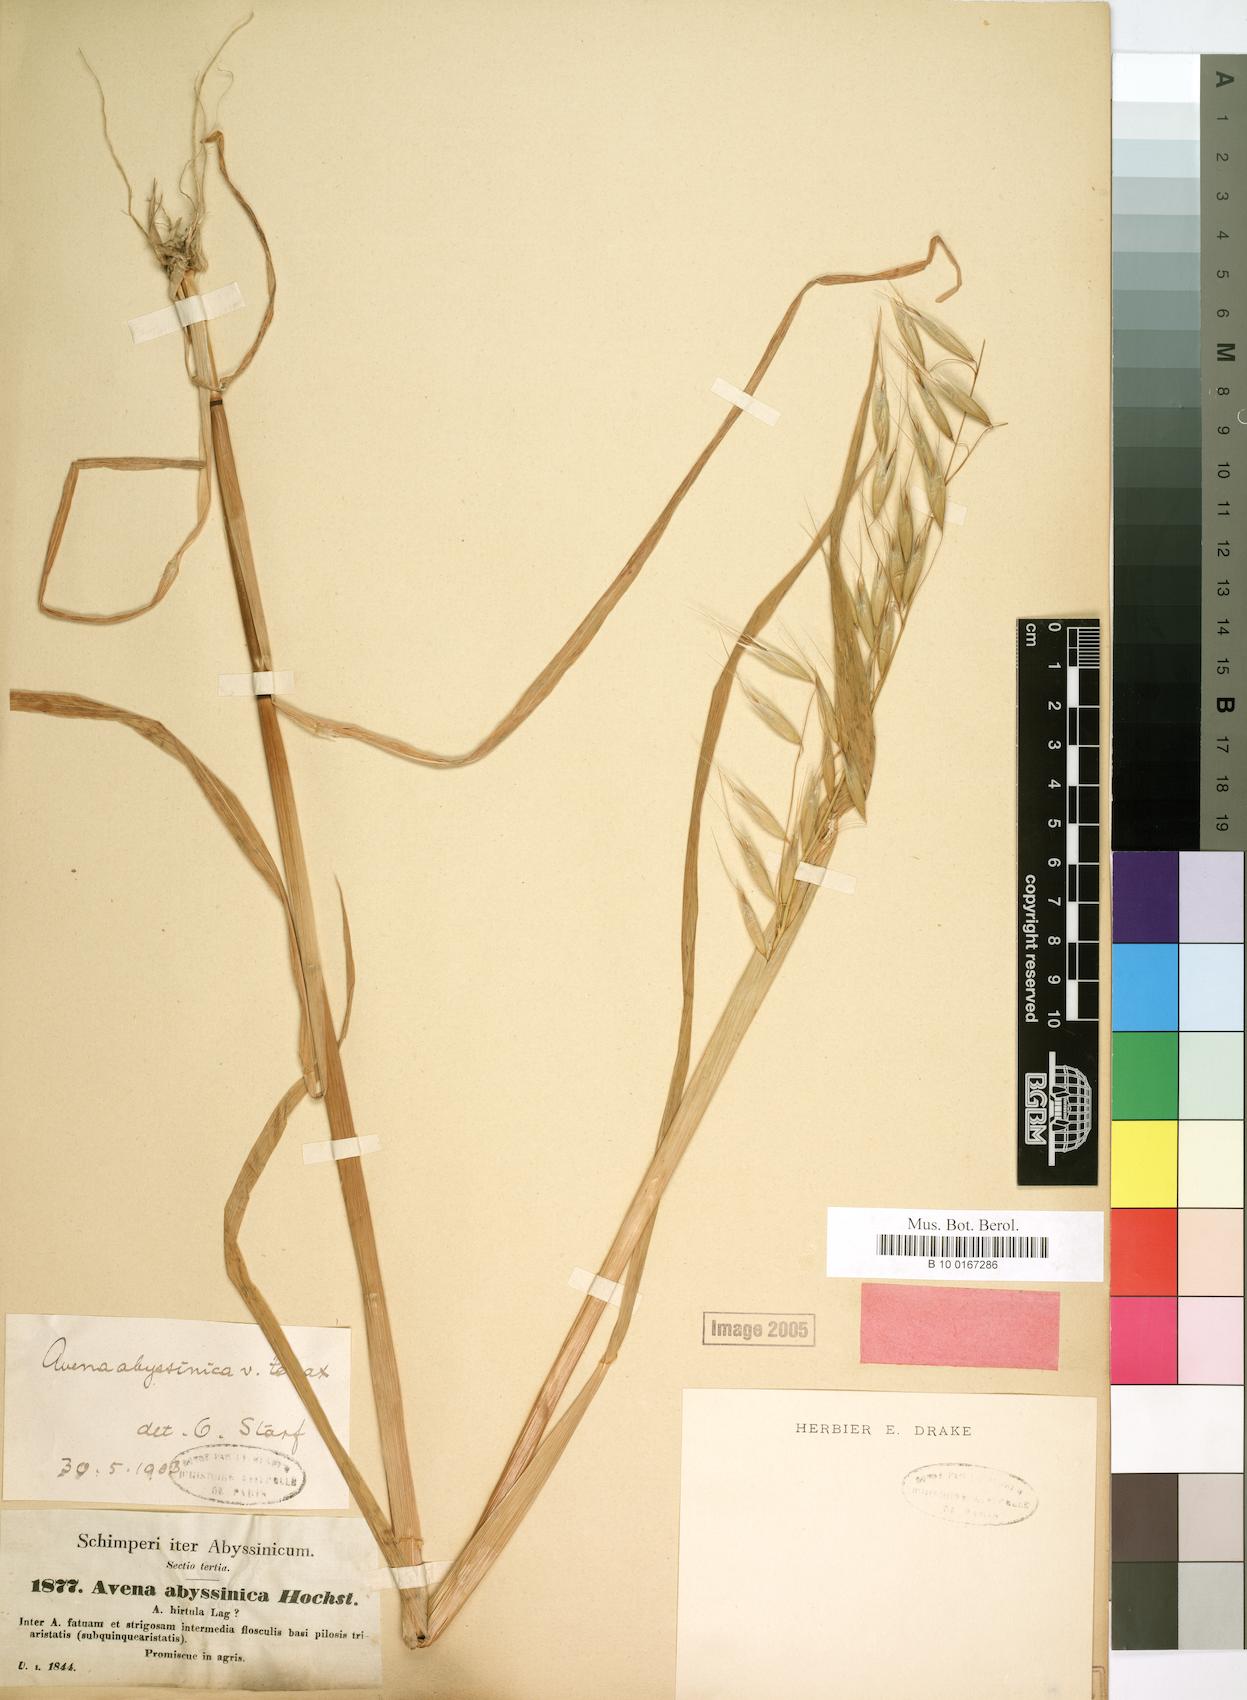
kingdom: Plantae
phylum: Tracheophyta
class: Liliopsida
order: Poales
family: Poaceae
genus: Avena
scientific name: Avena abyssinica
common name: Ethiopian oat
